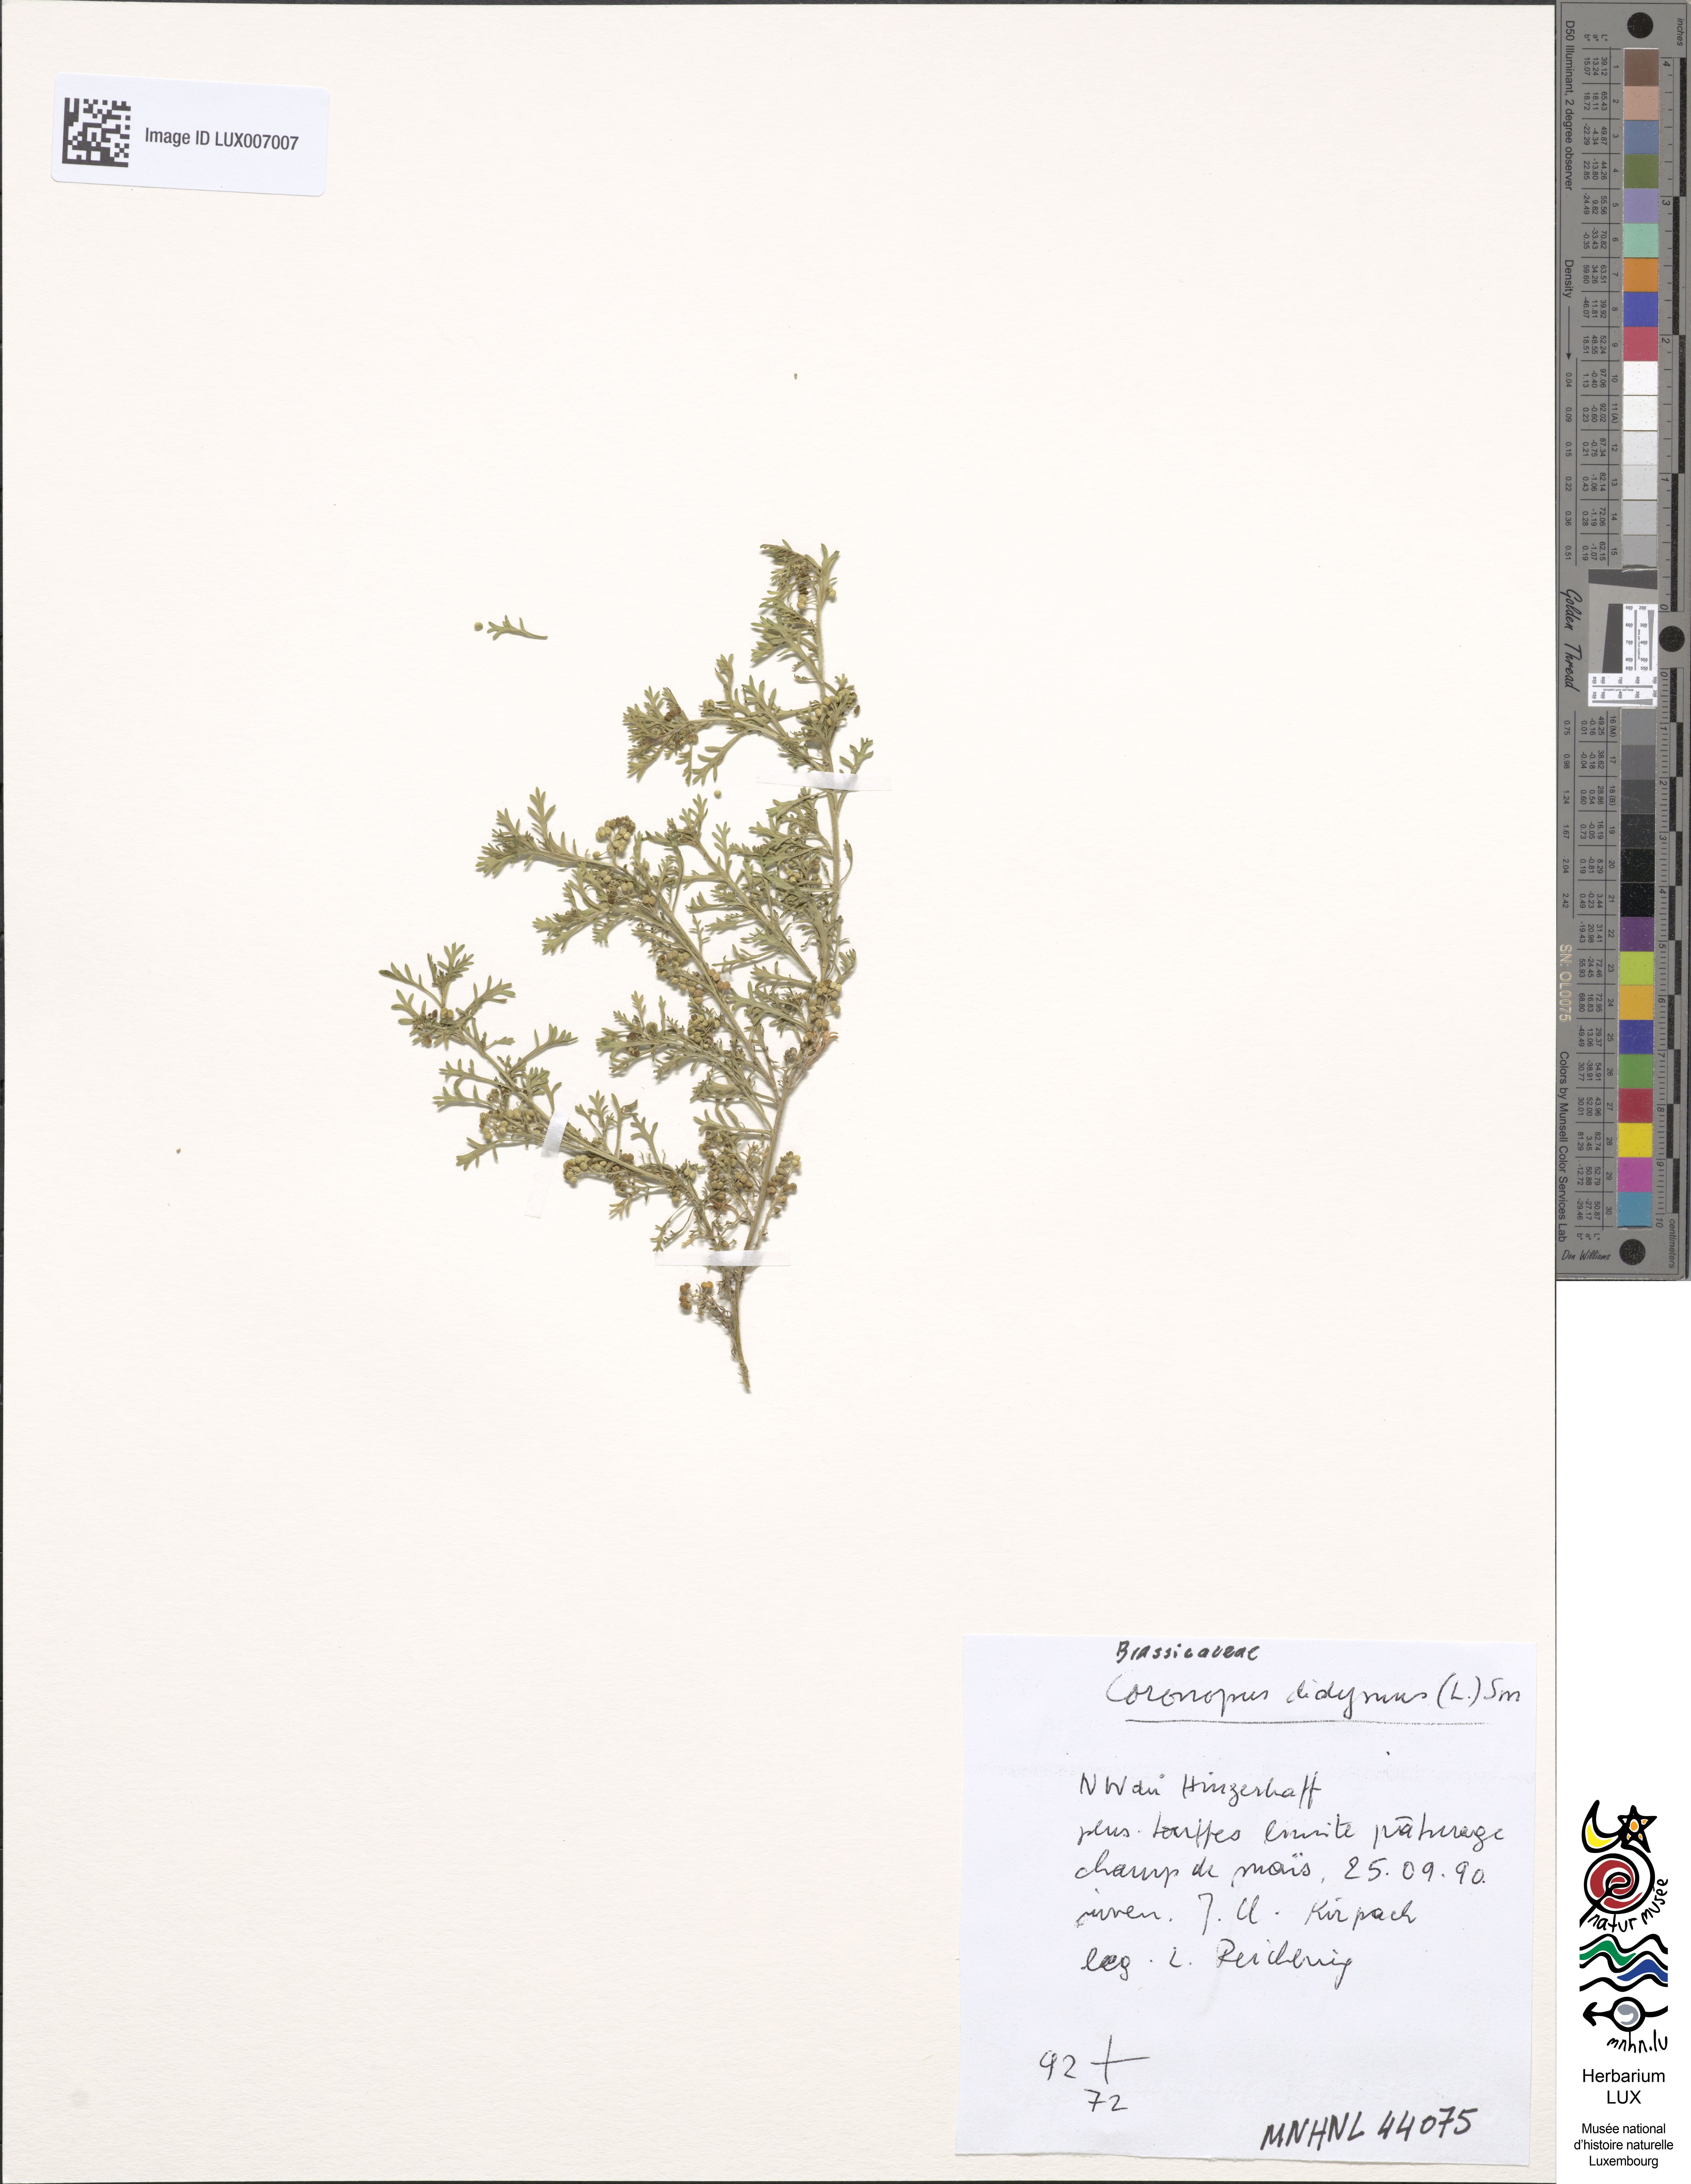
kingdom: Plantae
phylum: Tracheophyta
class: Magnoliopsida
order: Brassicales
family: Brassicaceae
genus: Lepidium
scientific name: Lepidium didymum
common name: Lesser swinecress
